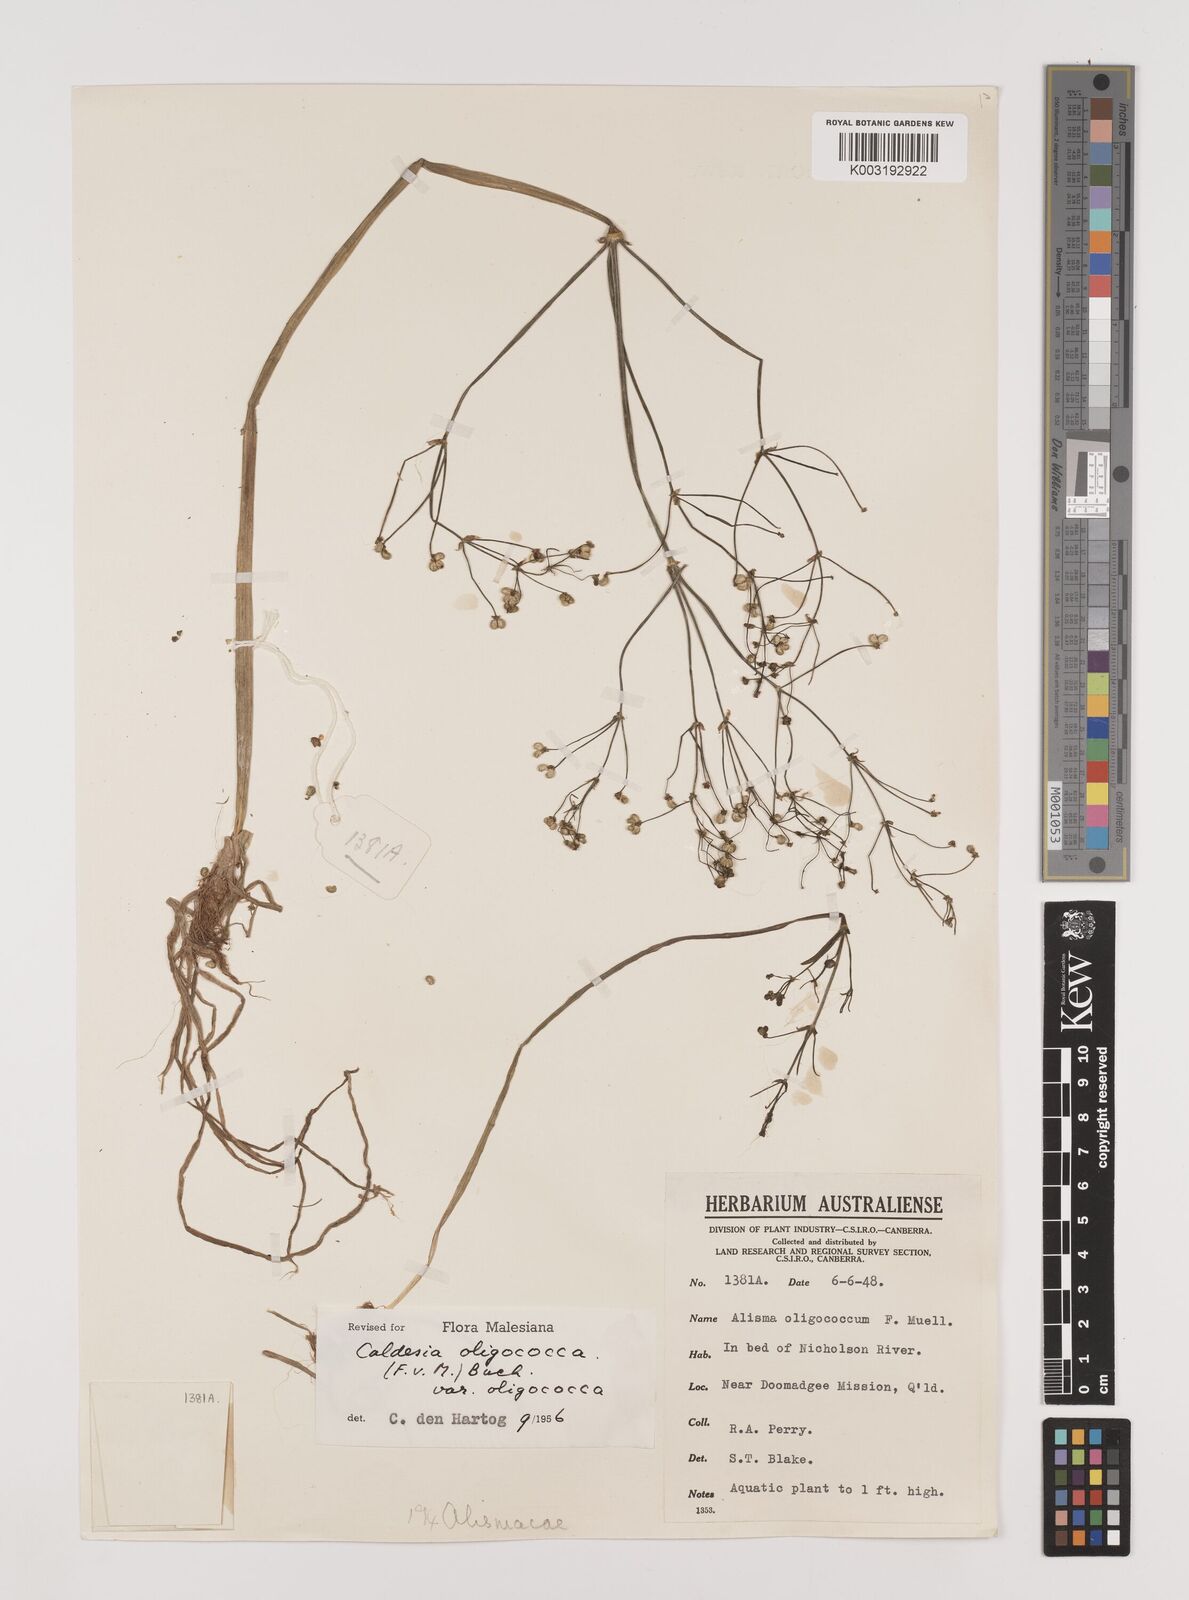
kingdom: Plantae
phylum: Tracheophyta
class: Liliopsida
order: Alismatales
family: Alismataceae
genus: Albidella
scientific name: Albidella oligococca
